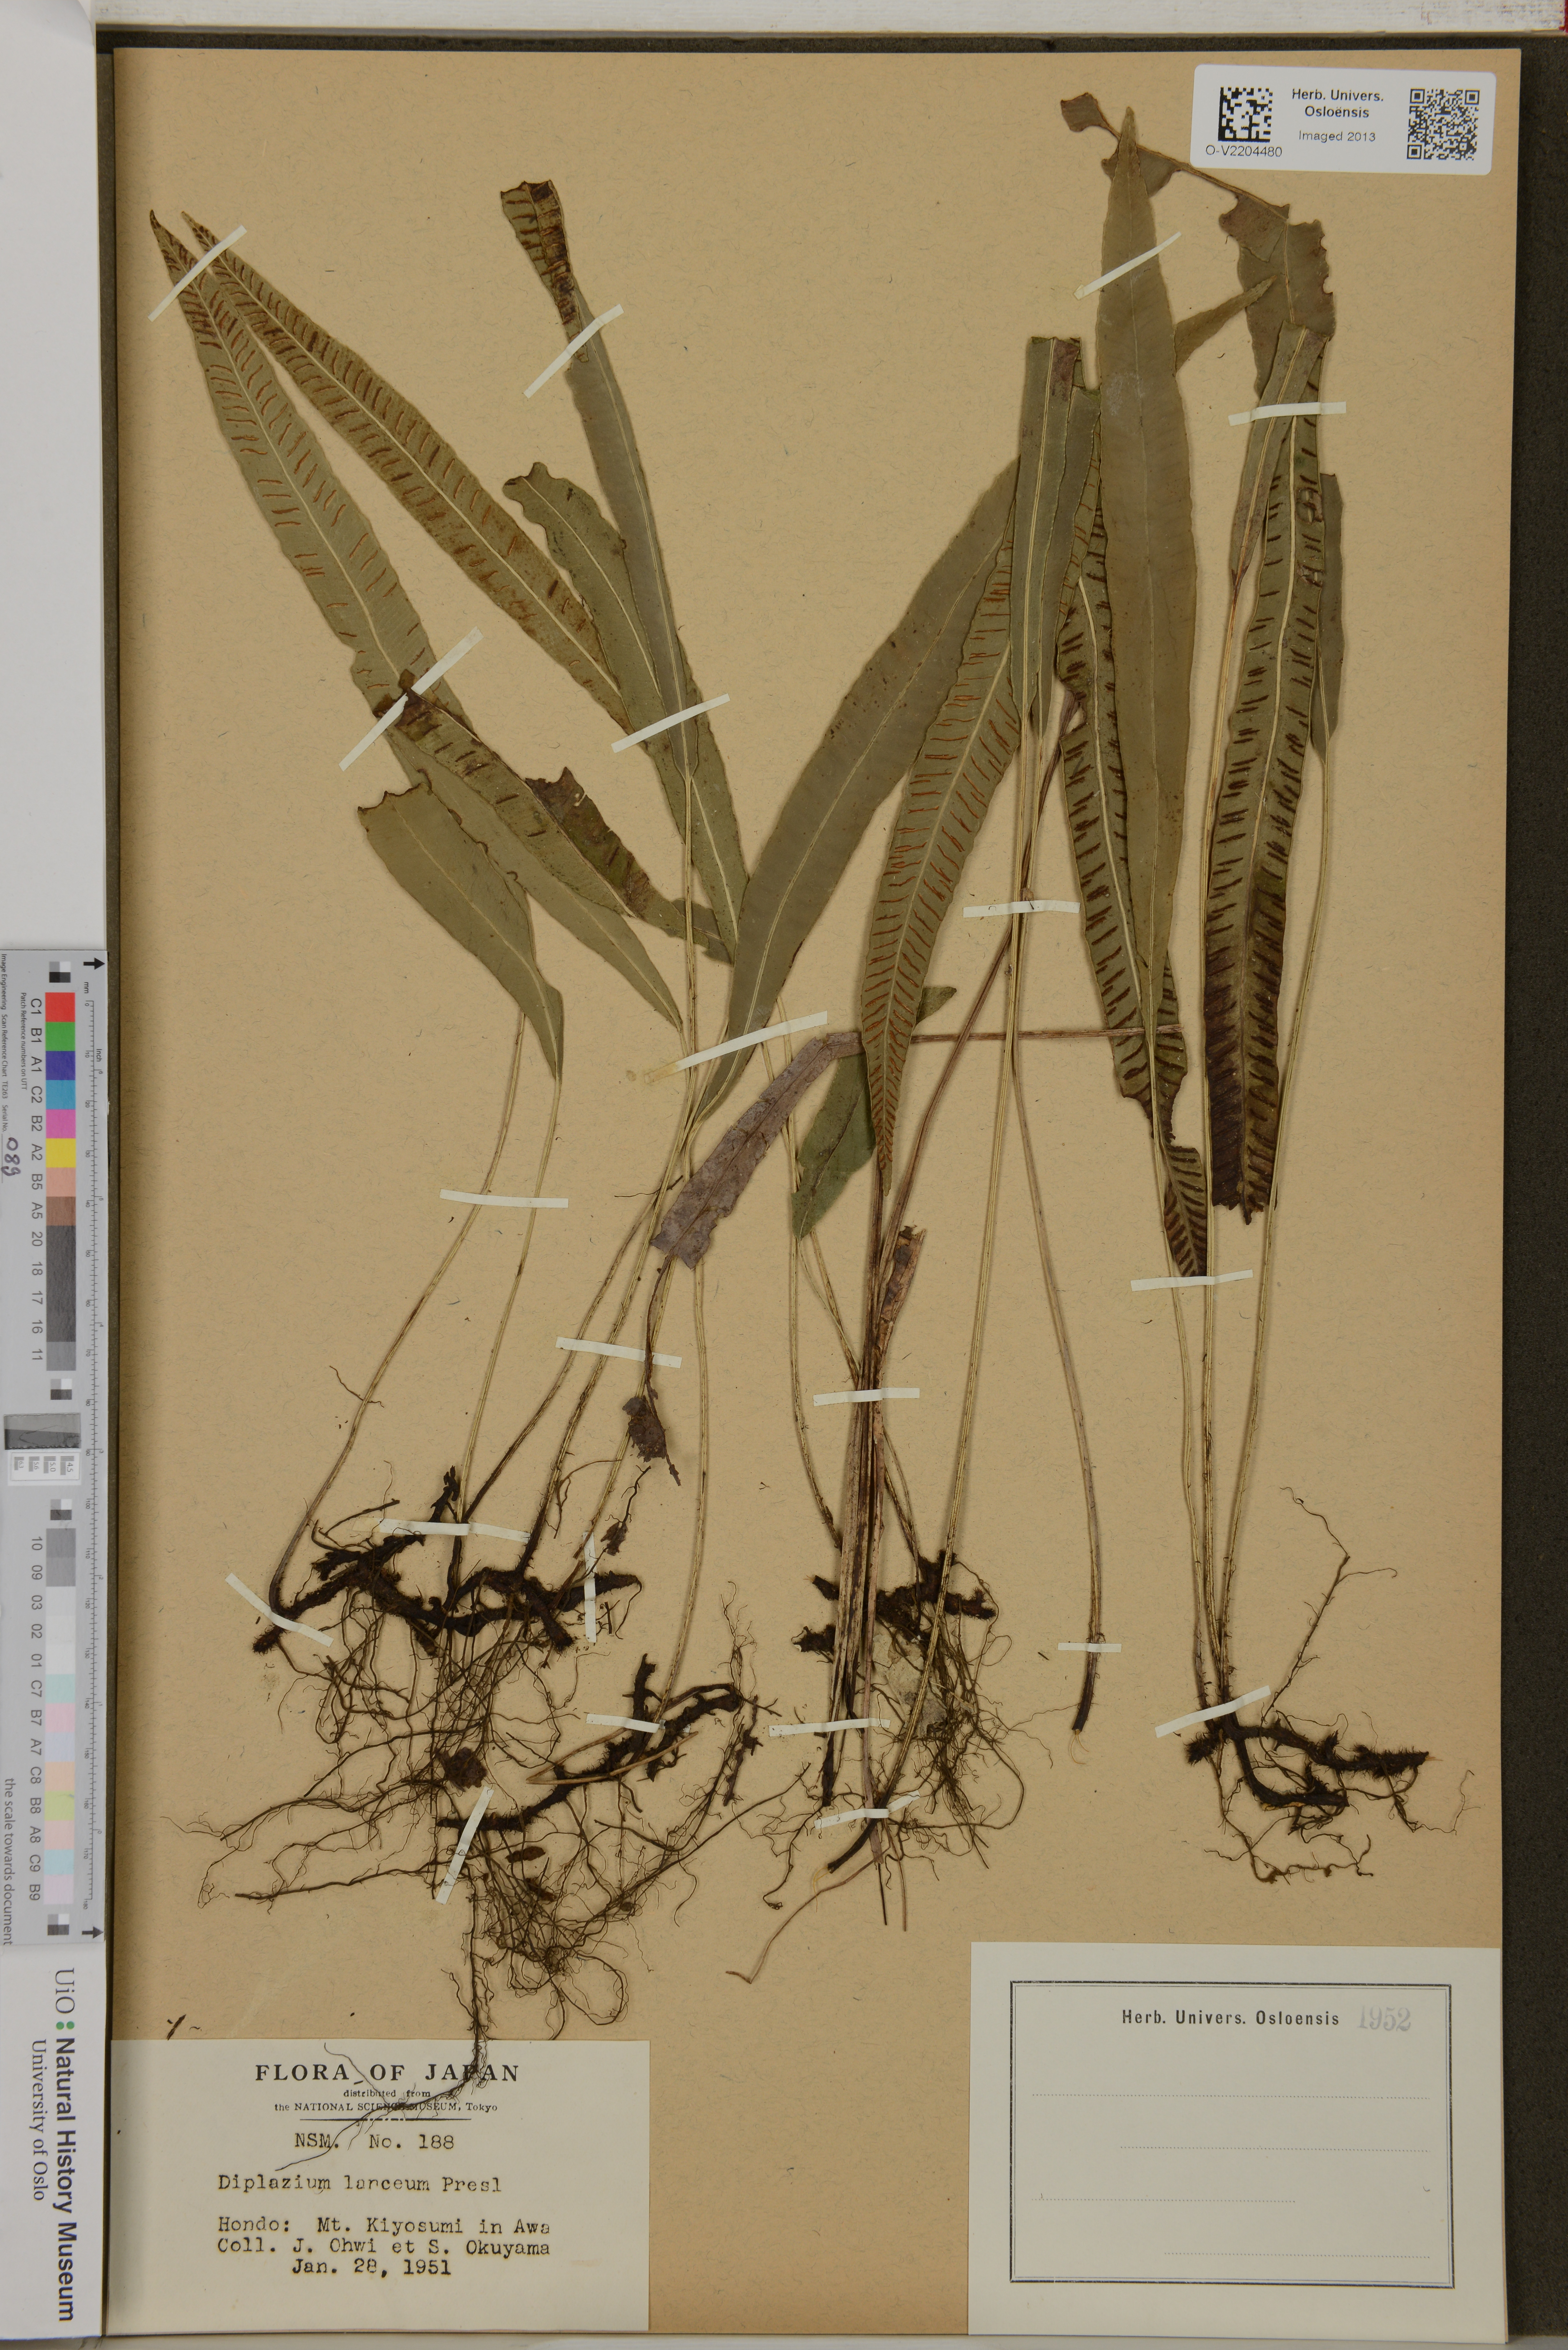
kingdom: Plantae
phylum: Tracheophyta
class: Polypodiopsida
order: Polypodiales
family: Athyriaceae
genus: Diplazium
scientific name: Diplazium cordifolium
